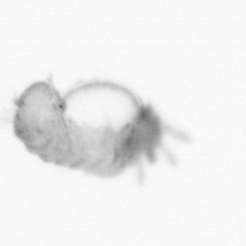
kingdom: Animalia
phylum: Annelida
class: Polychaeta
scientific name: Polychaeta
